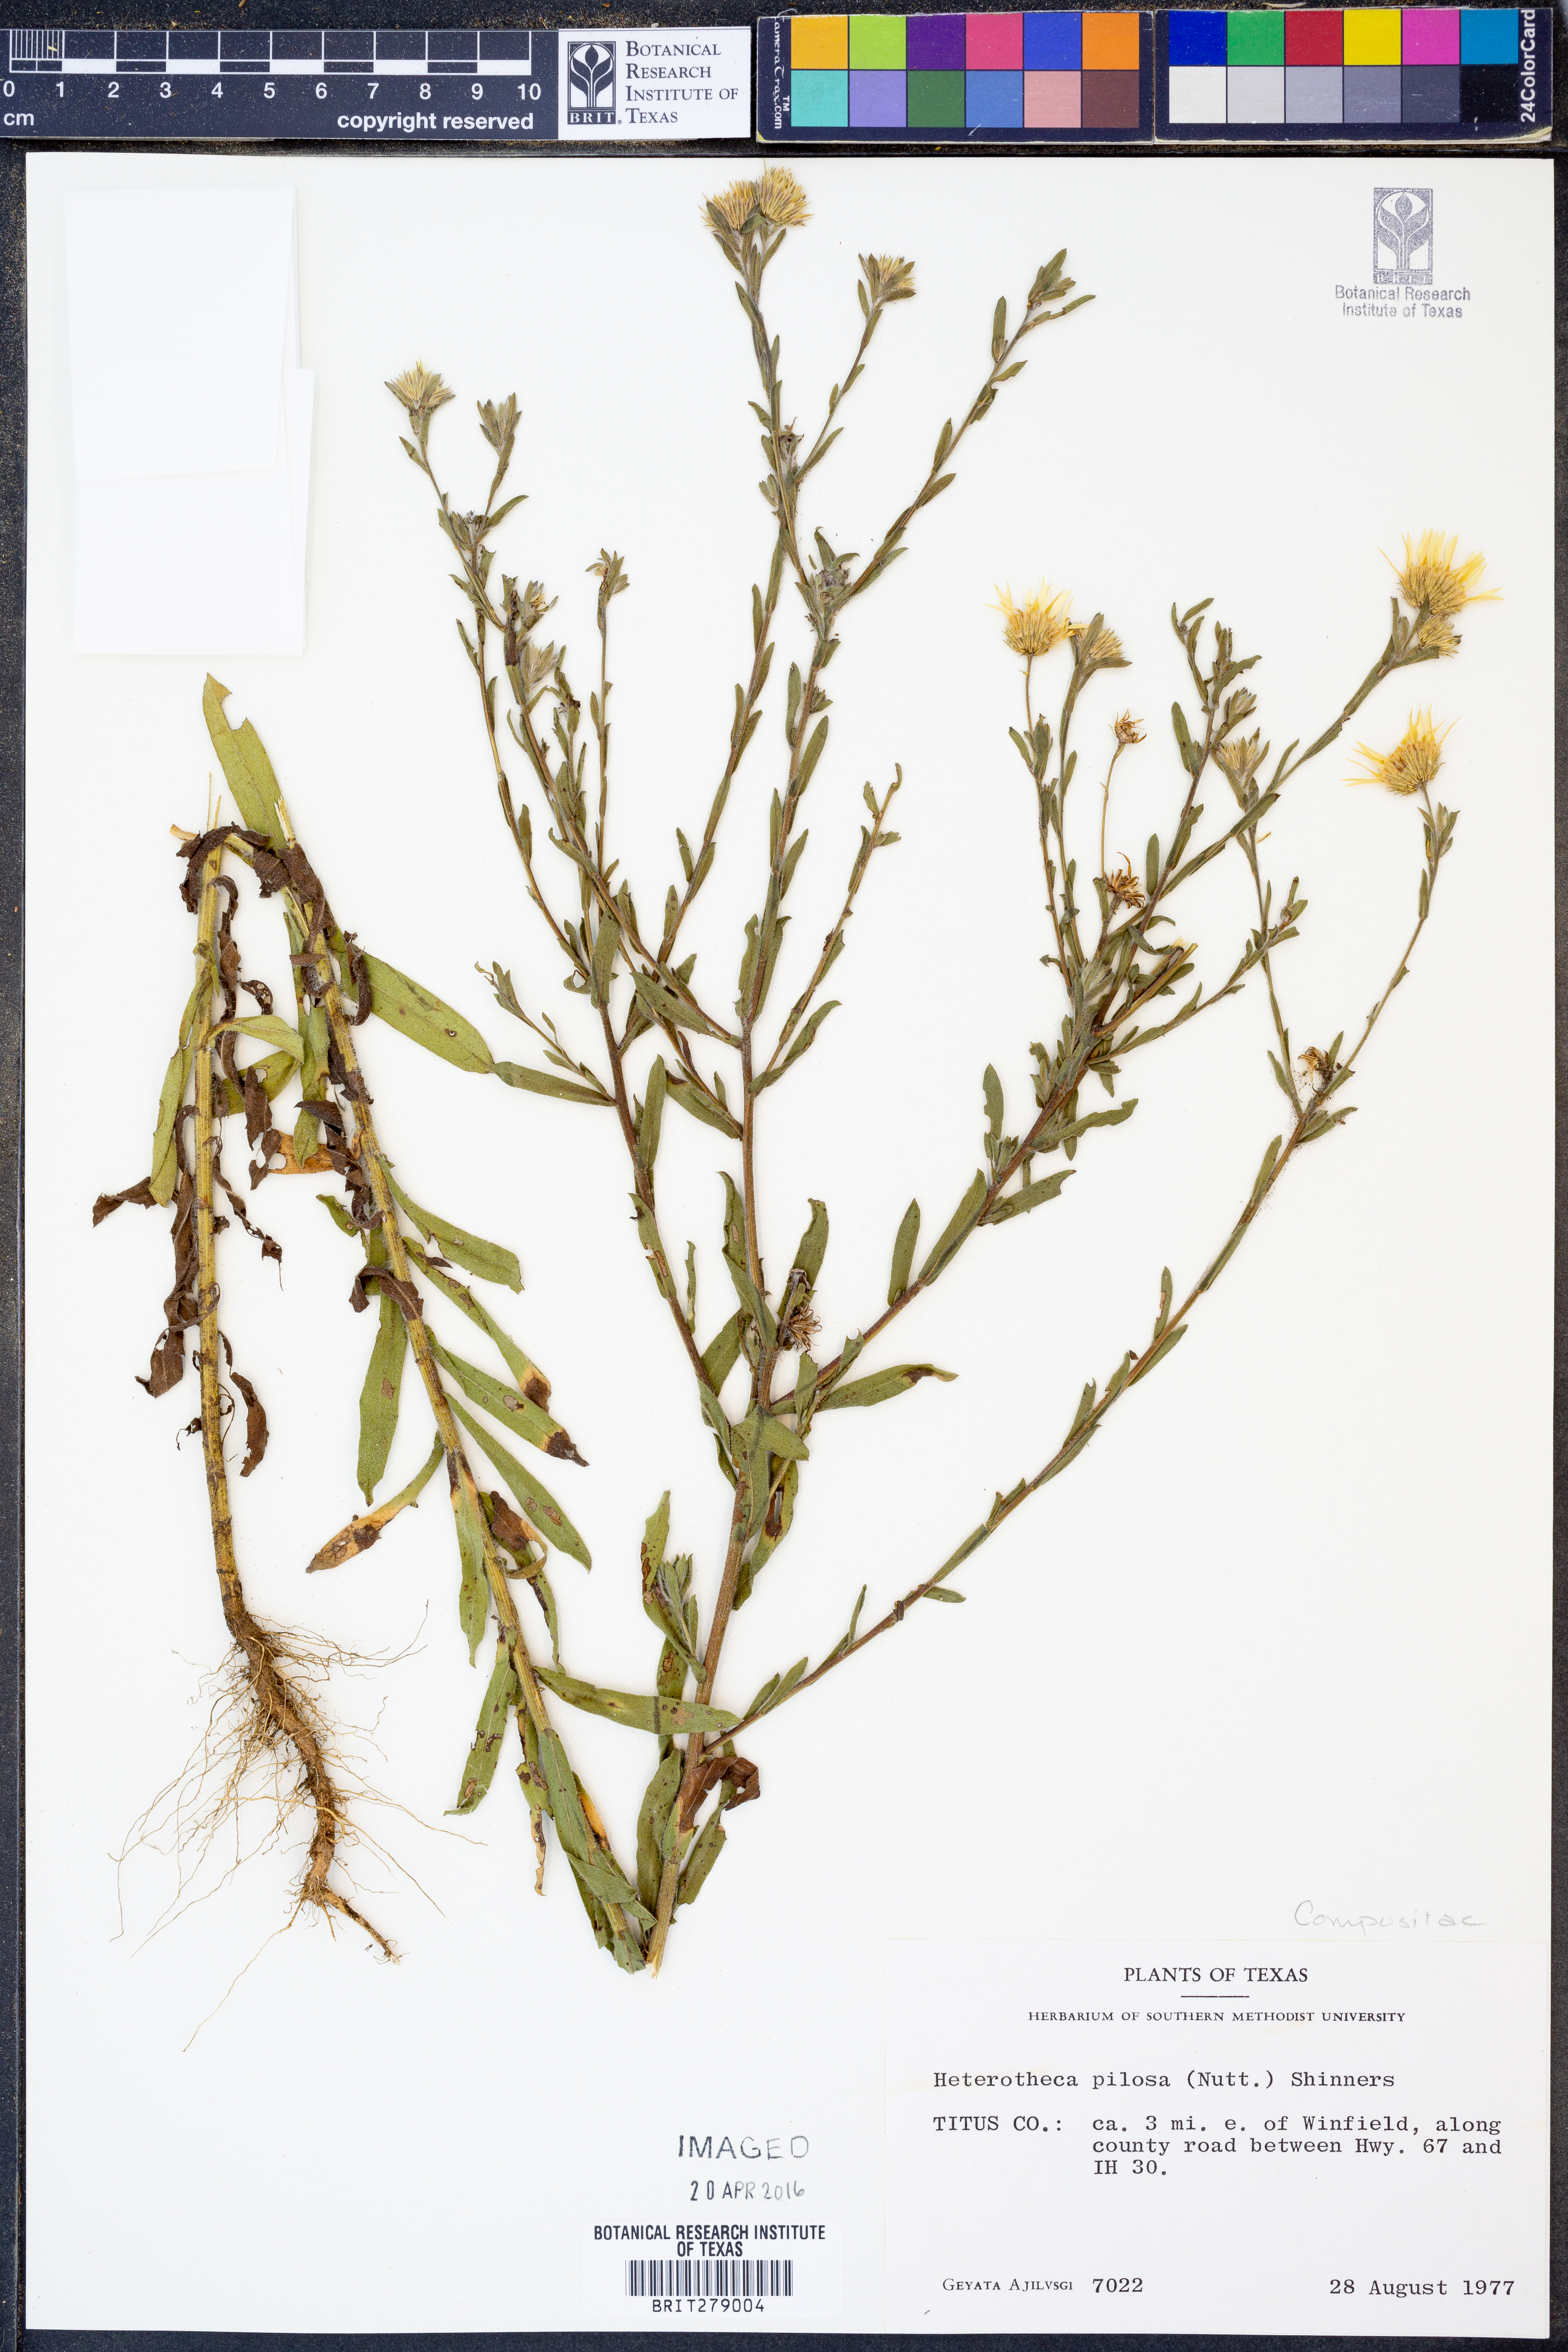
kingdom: Plantae
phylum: Tracheophyta
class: Magnoliopsida
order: Asterales
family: Asteraceae
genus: Bradburia
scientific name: Bradburia pilosa
